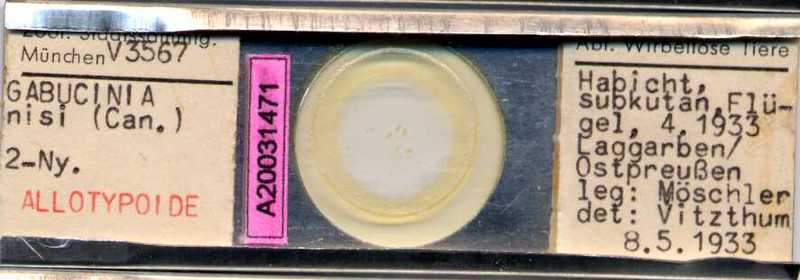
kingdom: Animalia
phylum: Arthropoda
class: Arachnida
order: Sarcoptiformes
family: Gabuciniidae
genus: Gabucinia
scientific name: Gabucinia nisi
